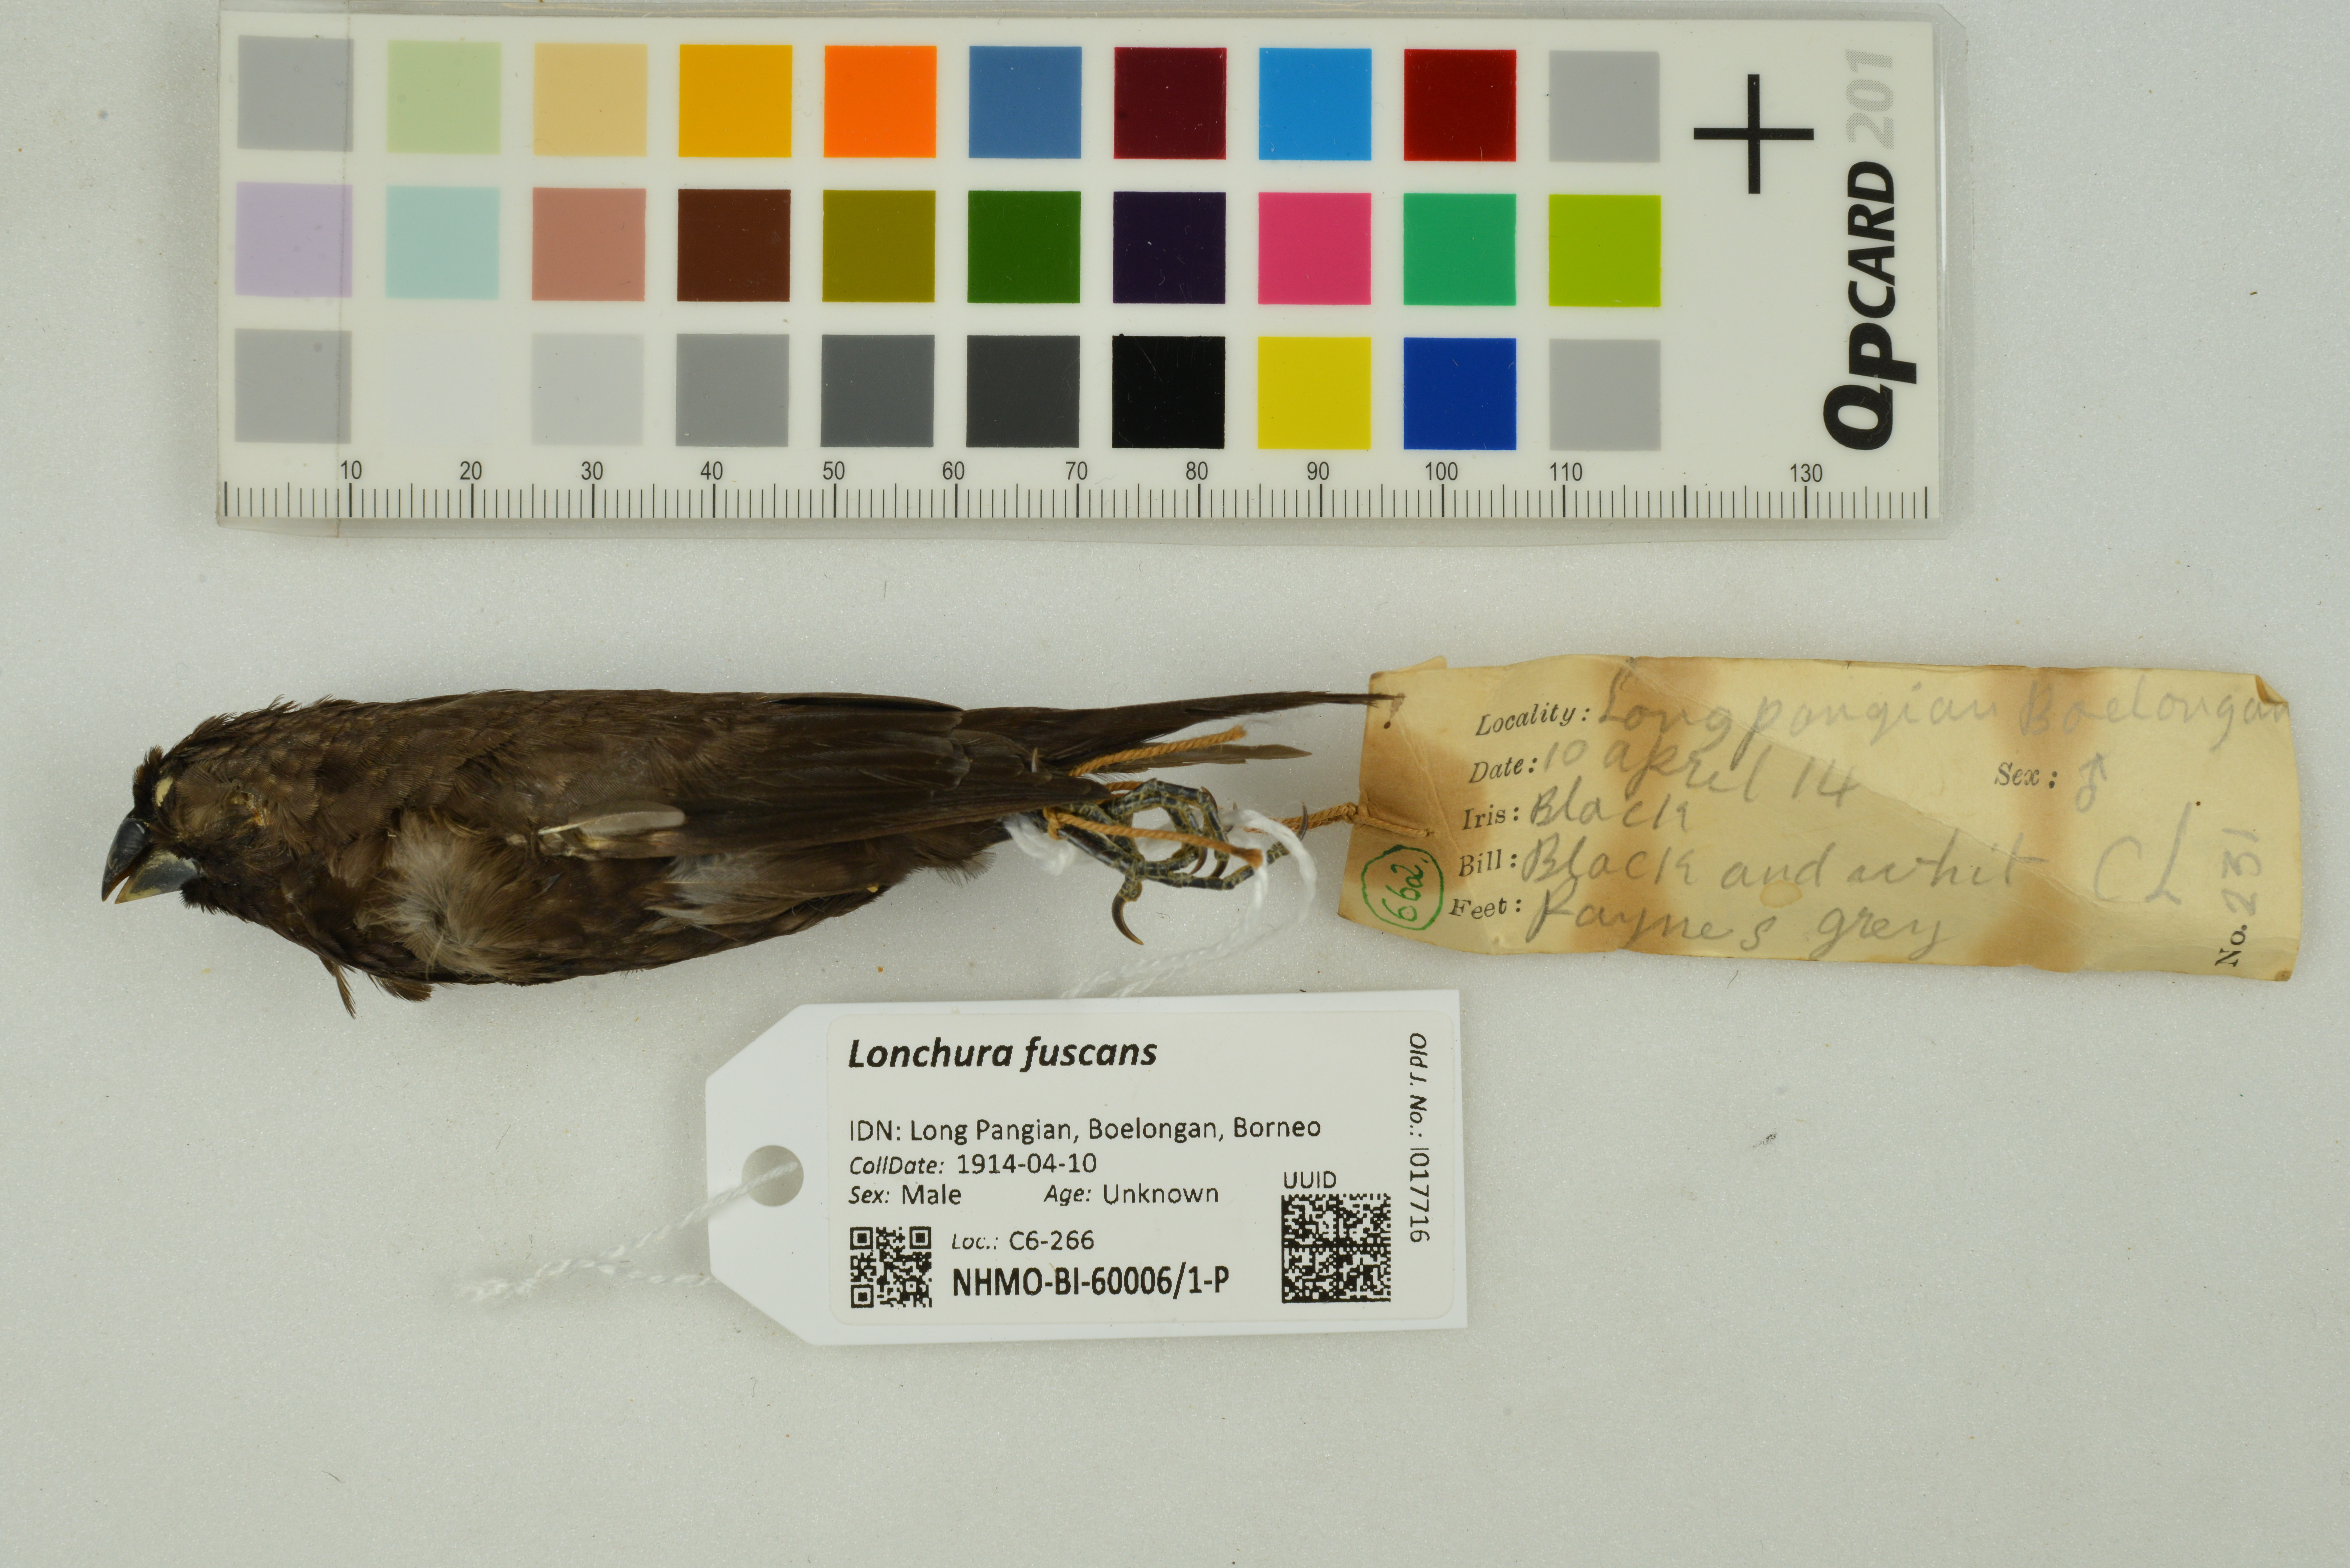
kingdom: Animalia
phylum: Chordata
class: Aves
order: Passeriformes
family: Estrildidae
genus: Lonchura
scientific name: Lonchura fuscans
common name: Dusky munia
